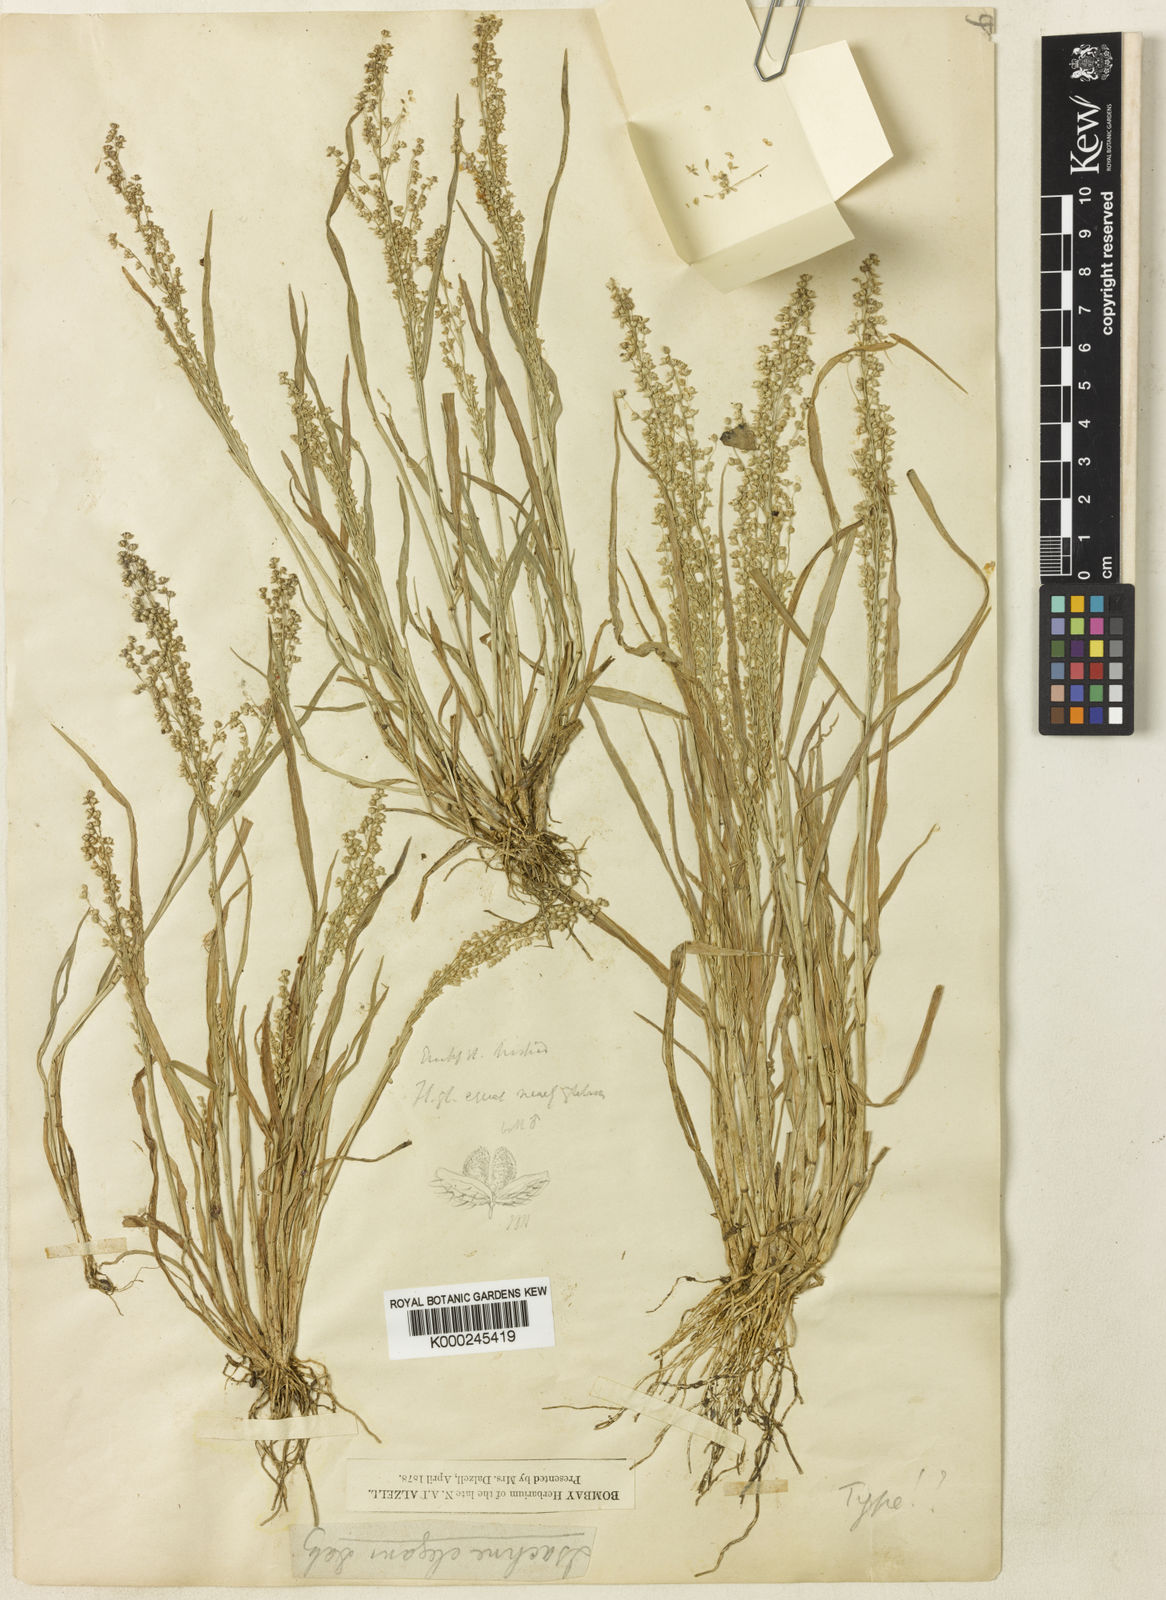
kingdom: Plantae
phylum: Tracheophyta
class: Liliopsida
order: Poales
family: Poaceae
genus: Isachne
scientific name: Isachne
